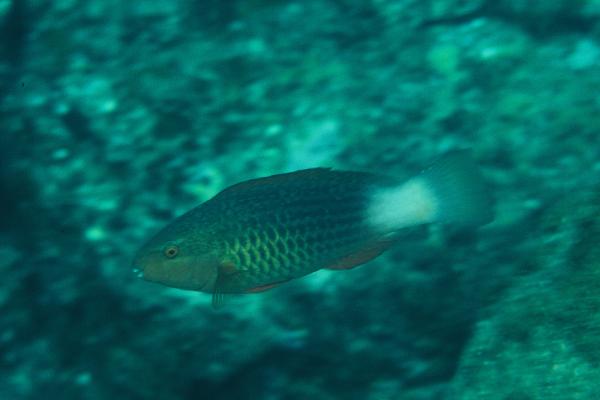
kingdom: Animalia
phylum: Chordata
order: Perciformes
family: Scaridae
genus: Scarus
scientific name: Scarus frenatus
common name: Bridled parrotfish
